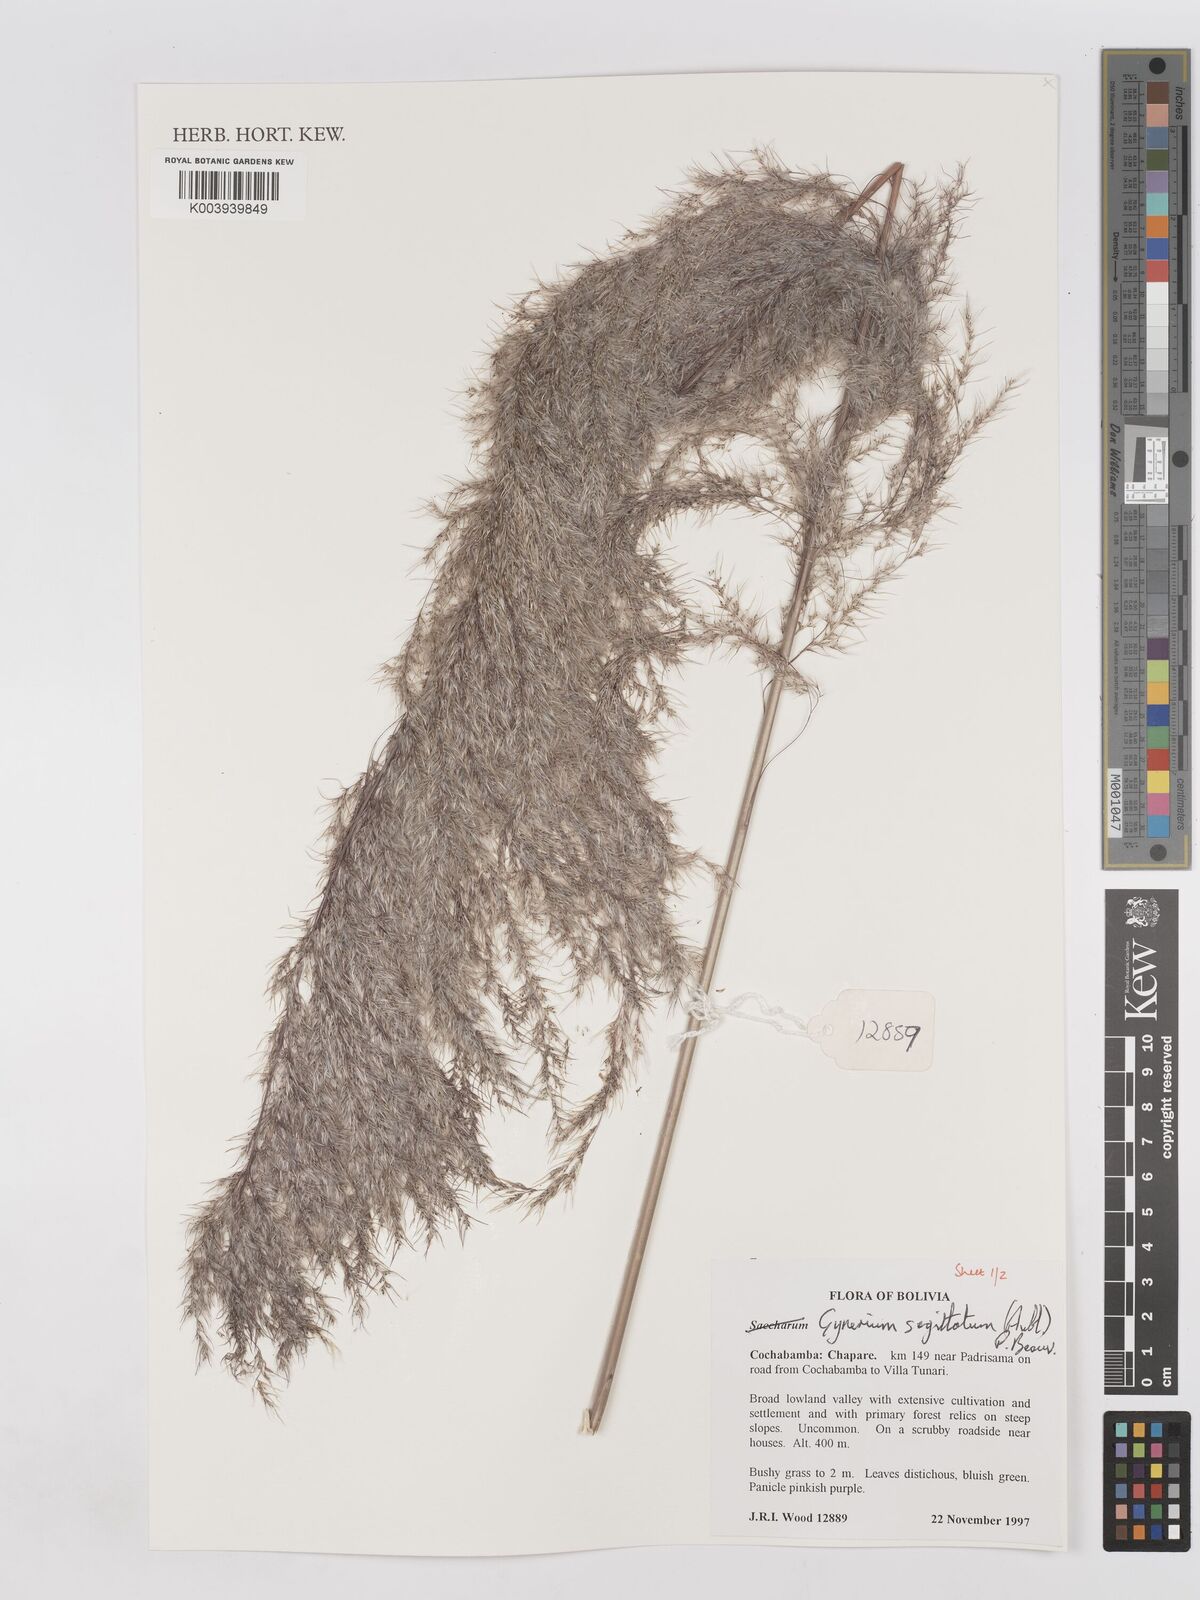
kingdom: Plantae
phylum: Tracheophyta
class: Liliopsida
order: Poales
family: Poaceae
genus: Gynerium
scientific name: Gynerium sagittatum
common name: Wild cane
